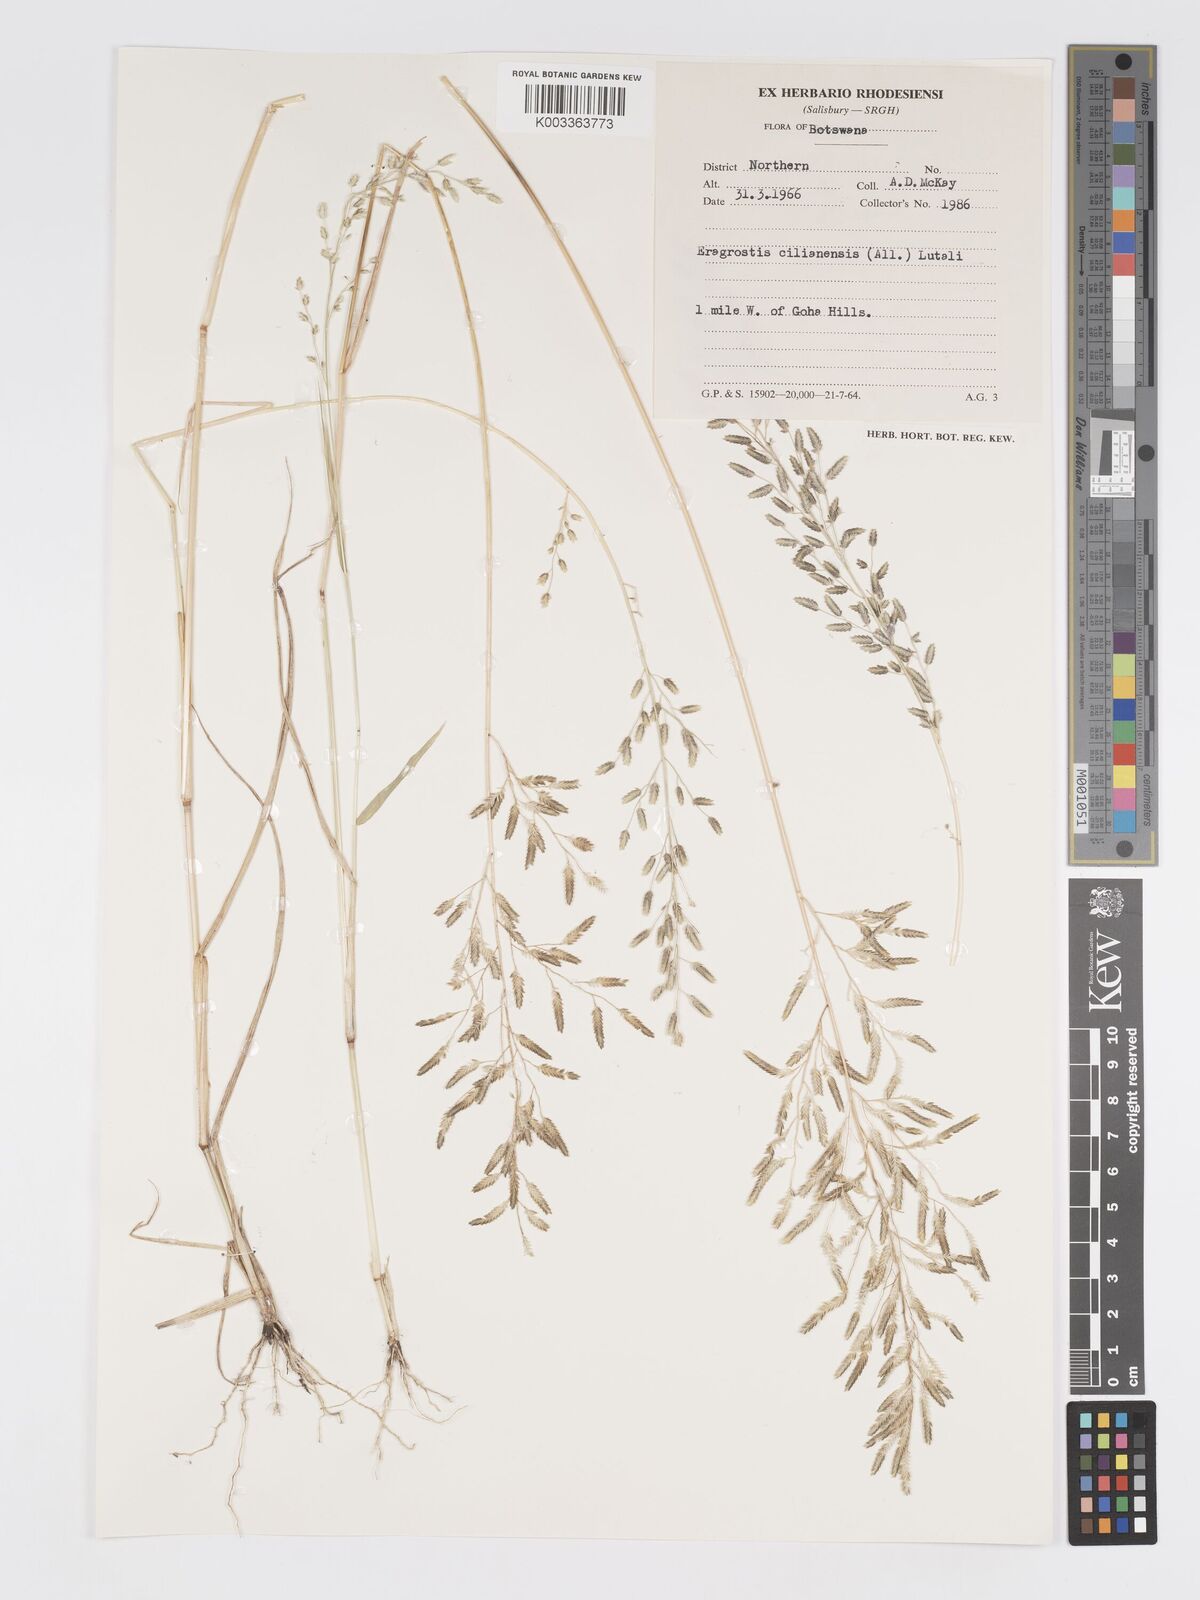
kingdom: Plantae
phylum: Tracheophyta
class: Liliopsida
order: Poales
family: Poaceae
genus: Eragrostis
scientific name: Eragrostis cilianensis
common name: Stinkgrass
